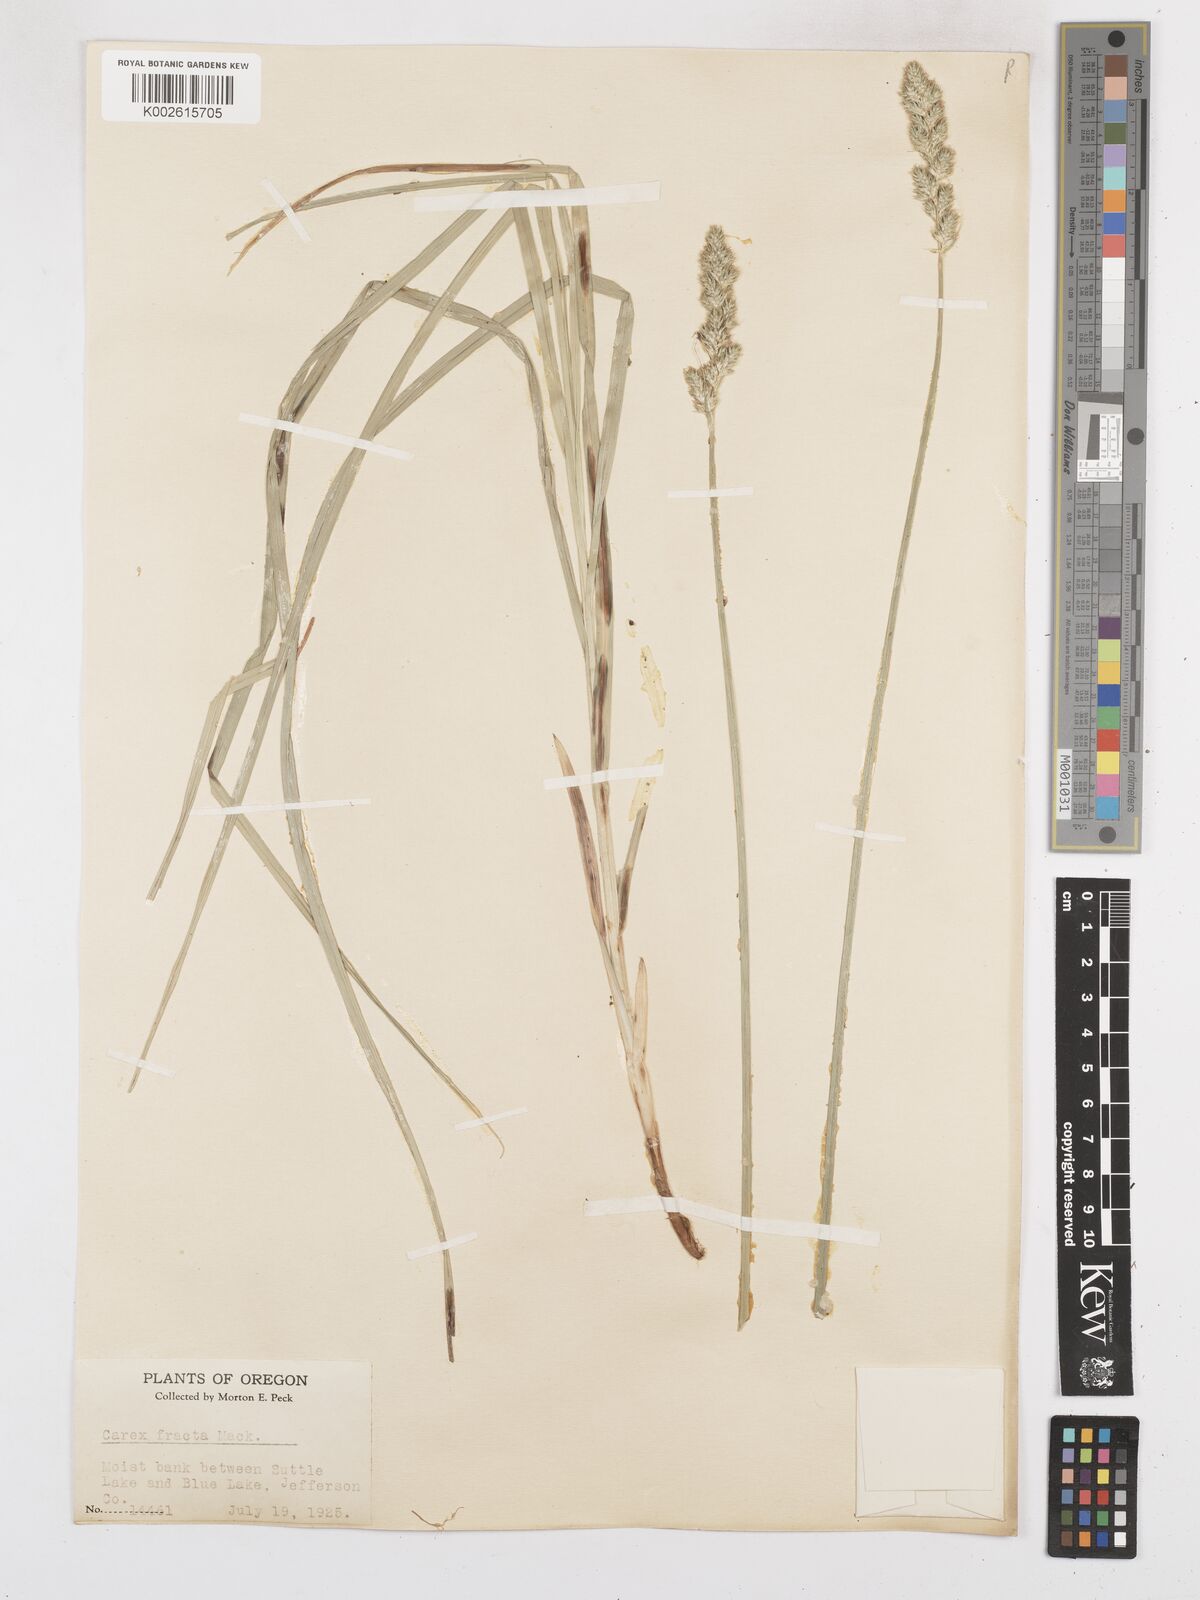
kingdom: Plantae
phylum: Tracheophyta
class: Liliopsida
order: Poales
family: Cyperaceae
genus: Carex
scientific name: Carex fracta
